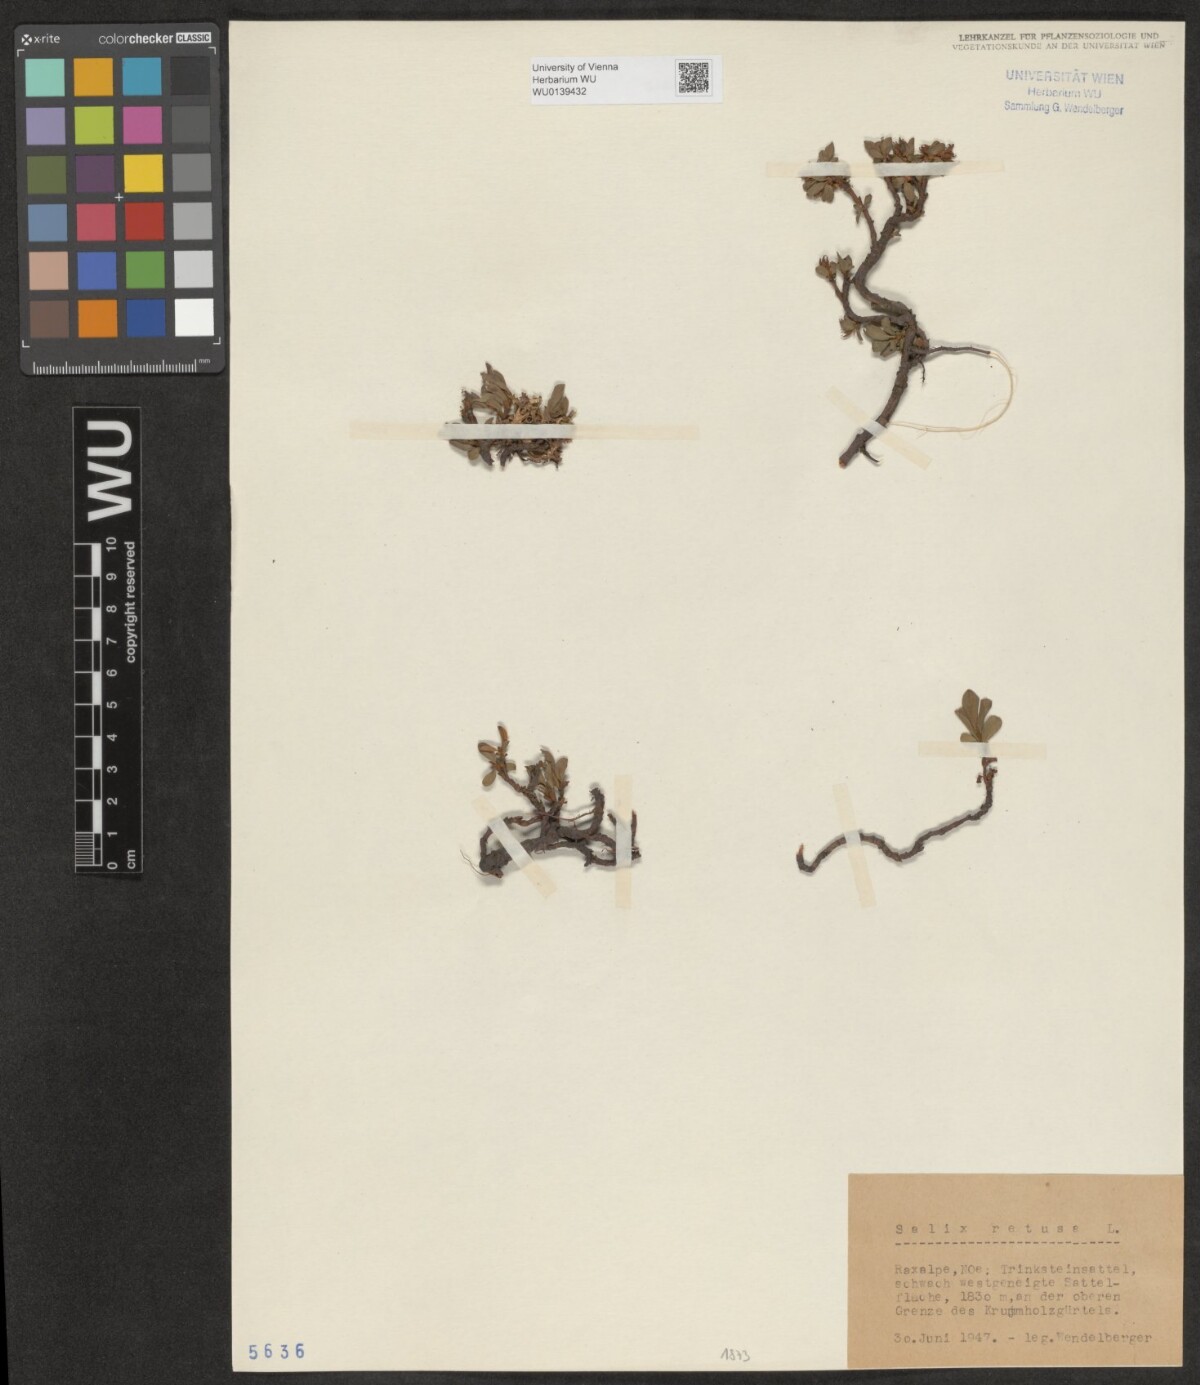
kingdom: Plantae
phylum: Tracheophyta
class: Magnoliopsida
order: Malpighiales
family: Salicaceae
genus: Salix
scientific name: Salix retusa
